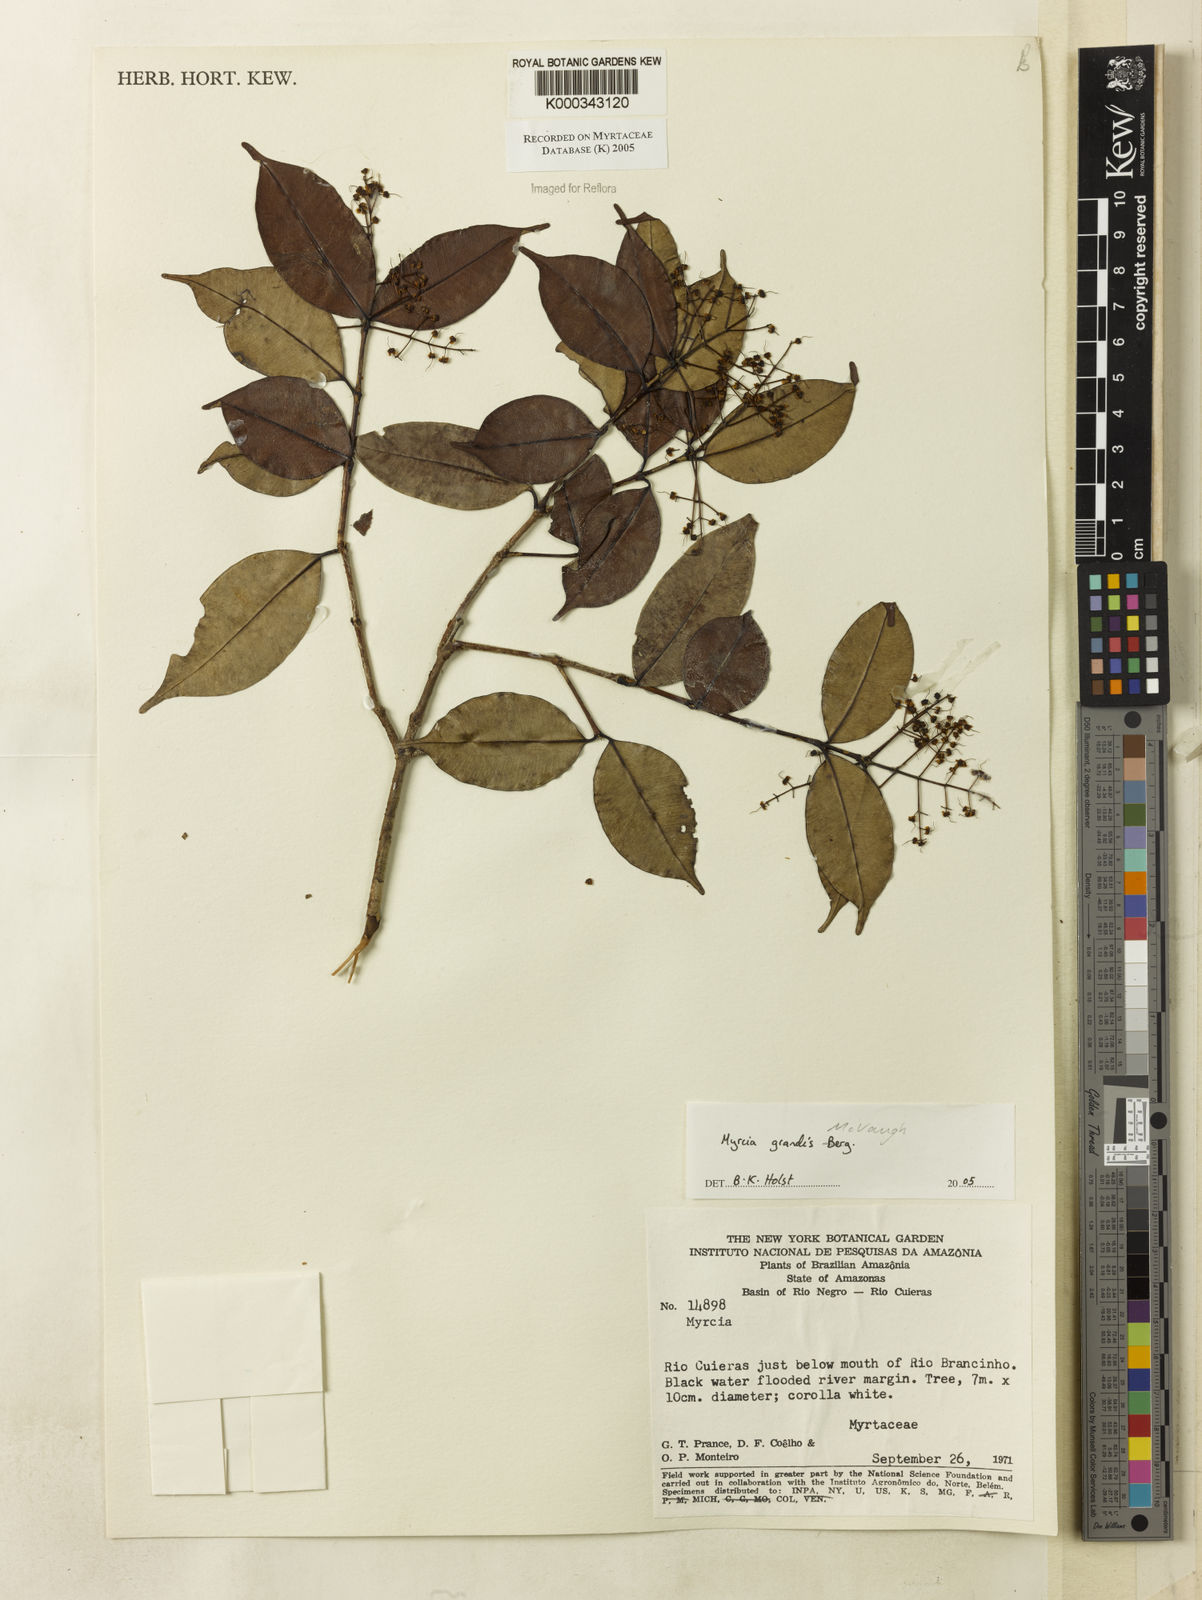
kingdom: Plantae
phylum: Tracheophyta
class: Magnoliopsida
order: Myrtales
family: Myrtaceae
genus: Myrcia
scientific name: Myrcia grandis
